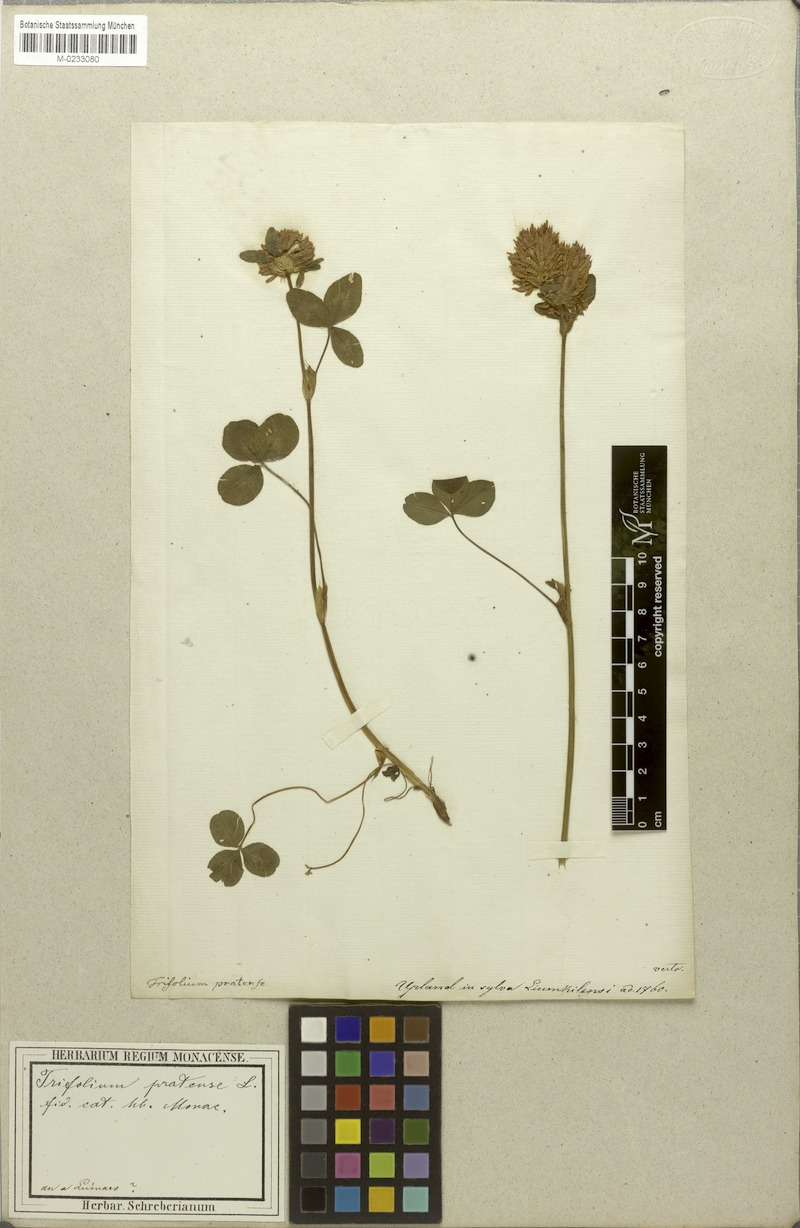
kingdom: Plantae
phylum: Tracheophyta
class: Magnoliopsida
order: Fabales
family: Fabaceae
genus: Trifolium
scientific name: Trifolium pratense
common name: Red clover
